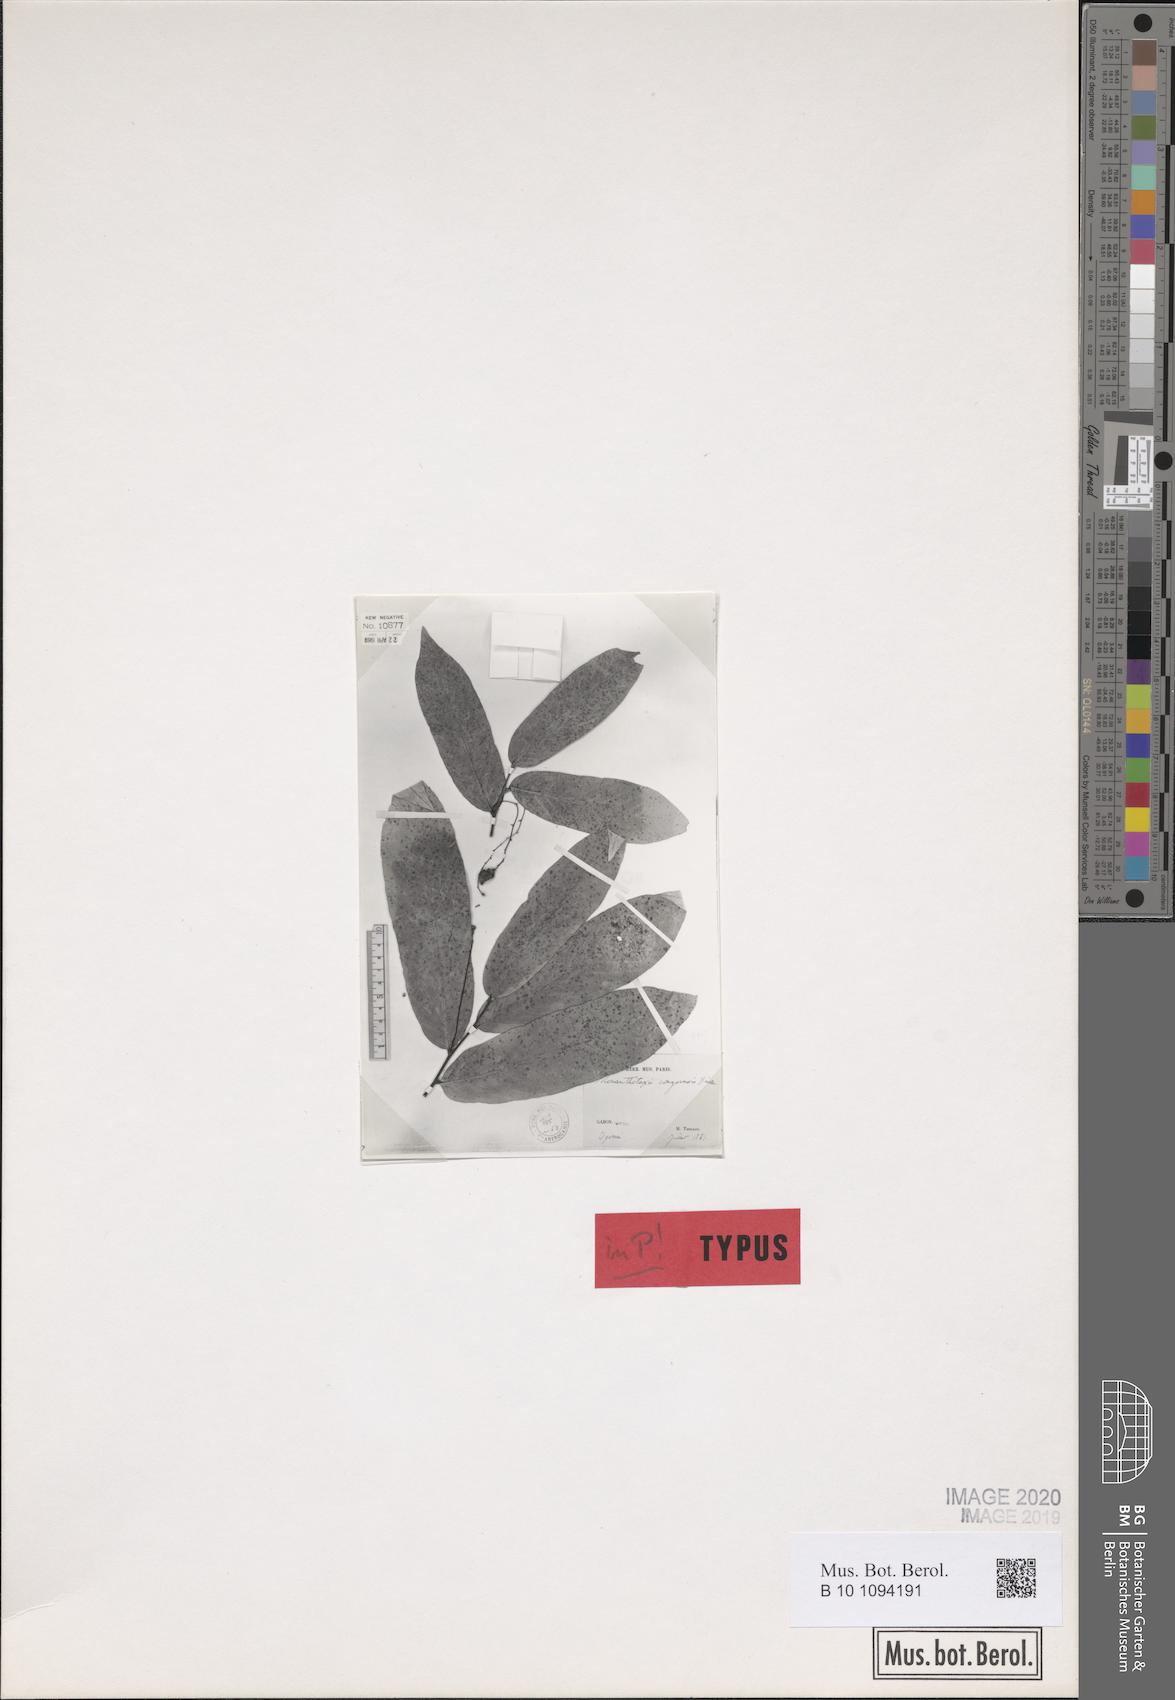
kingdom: Plantae
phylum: Tracheophyta
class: Magnoliopsida
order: Magnoliales
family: Annonaceae
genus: Monanthotaxis
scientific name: Monanthotaxis congoensis
